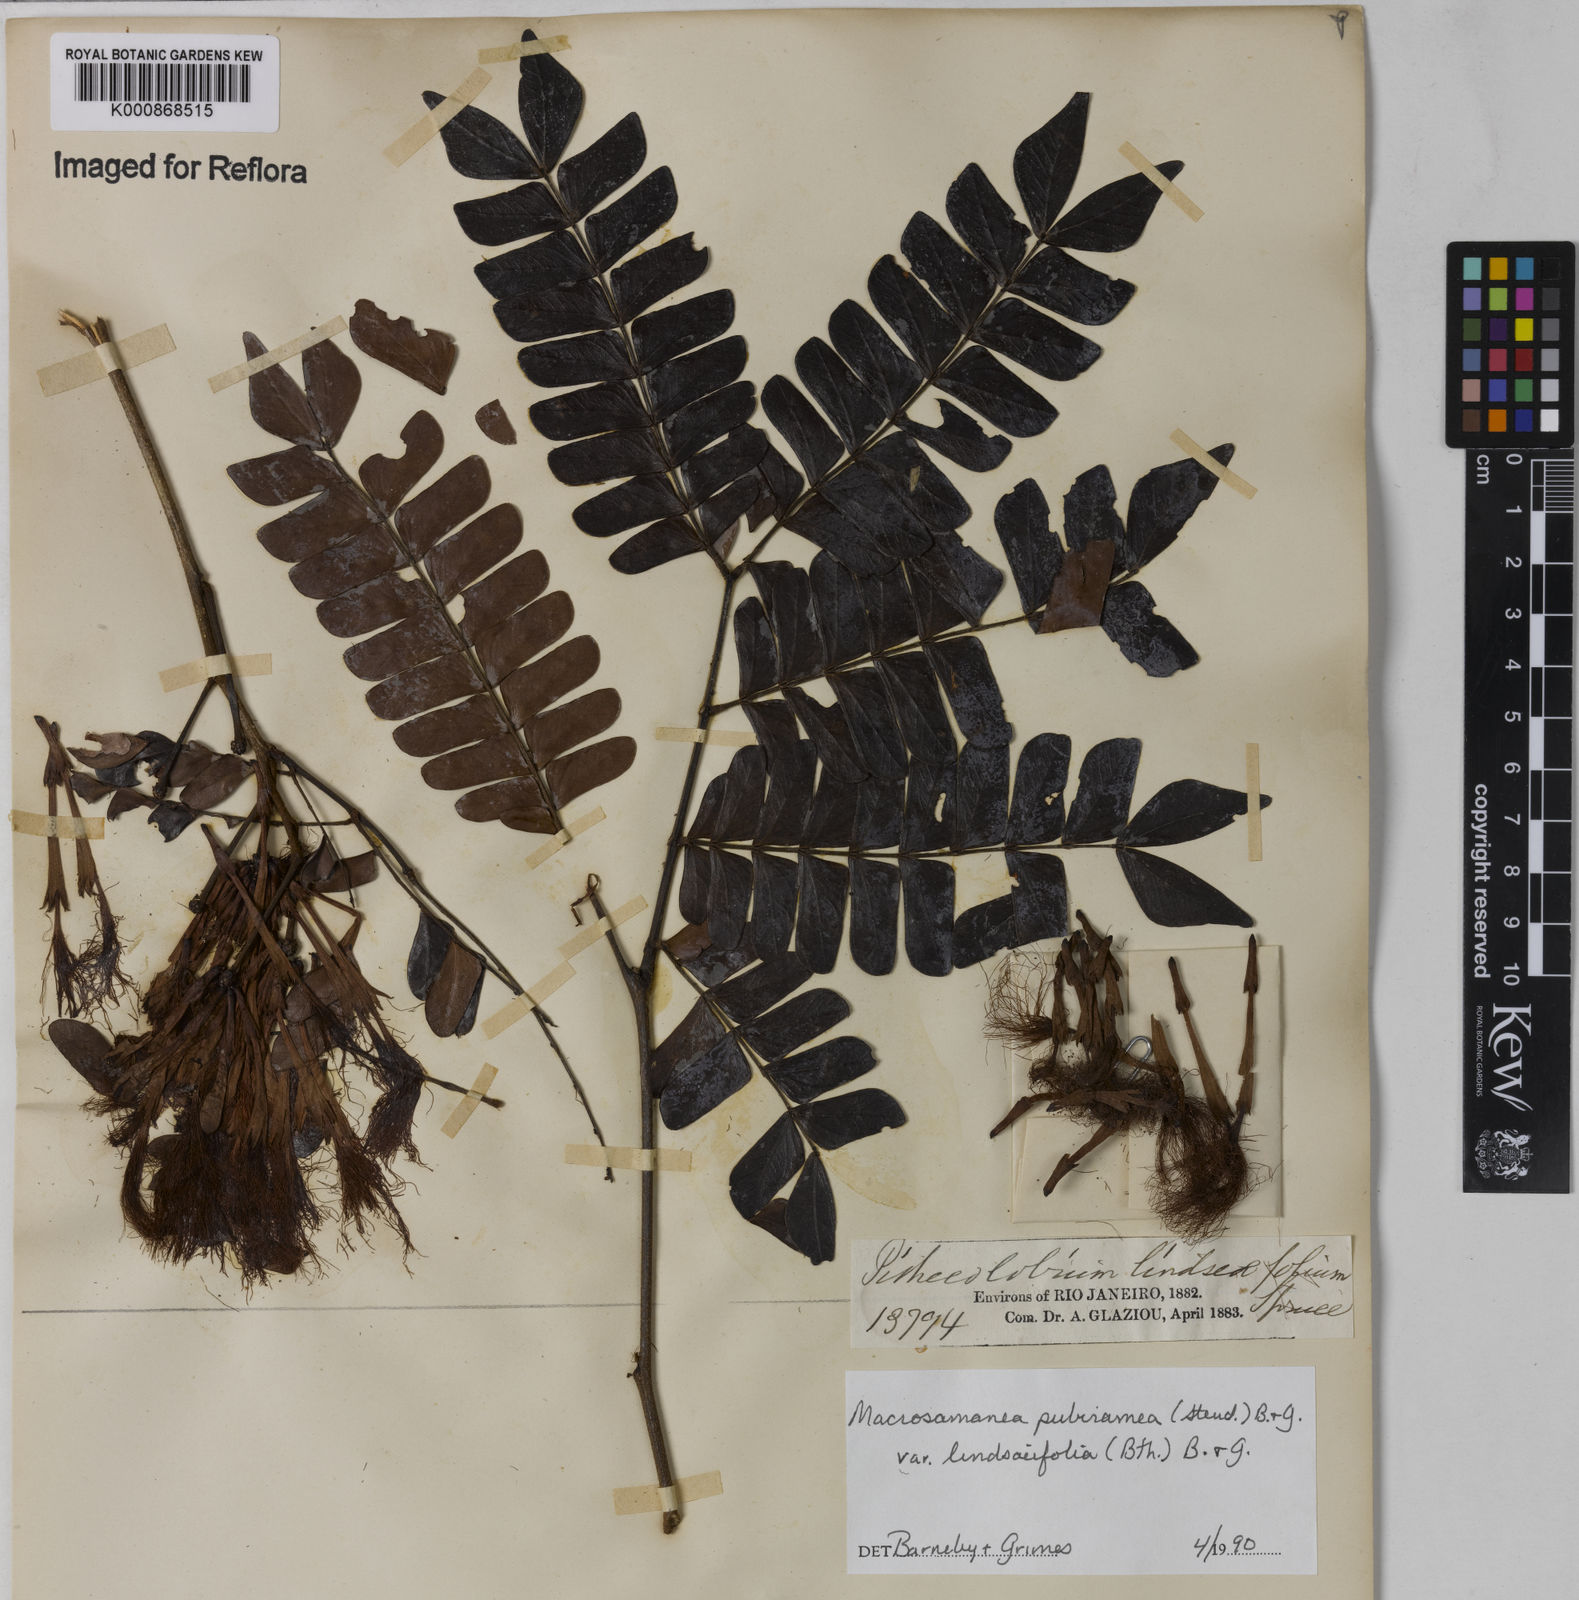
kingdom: Plantae
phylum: Tracheophyta
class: Magnoliopsida
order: Fabales
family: Fabaceae
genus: Macrosamanea
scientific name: Macrosamanea pubiramea
